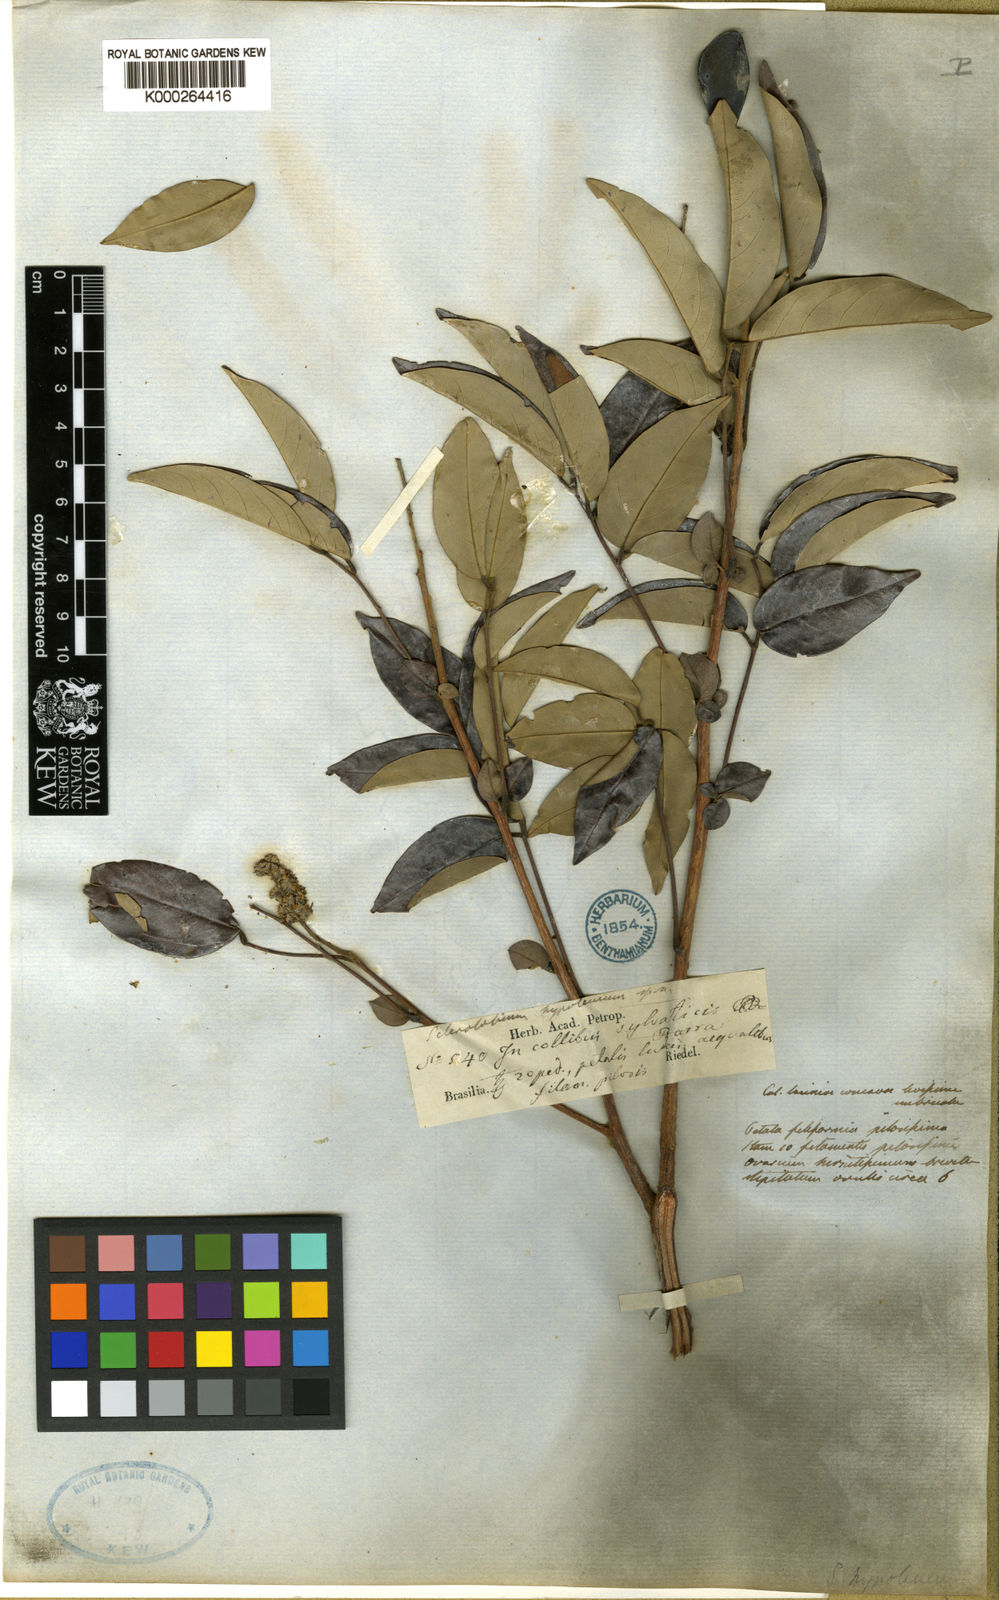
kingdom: Plantae
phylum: Tracheophyta
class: Magnoliopsida
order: Fabales
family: Fabaceae
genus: Tachigali
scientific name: Tachigali hypoleuca
